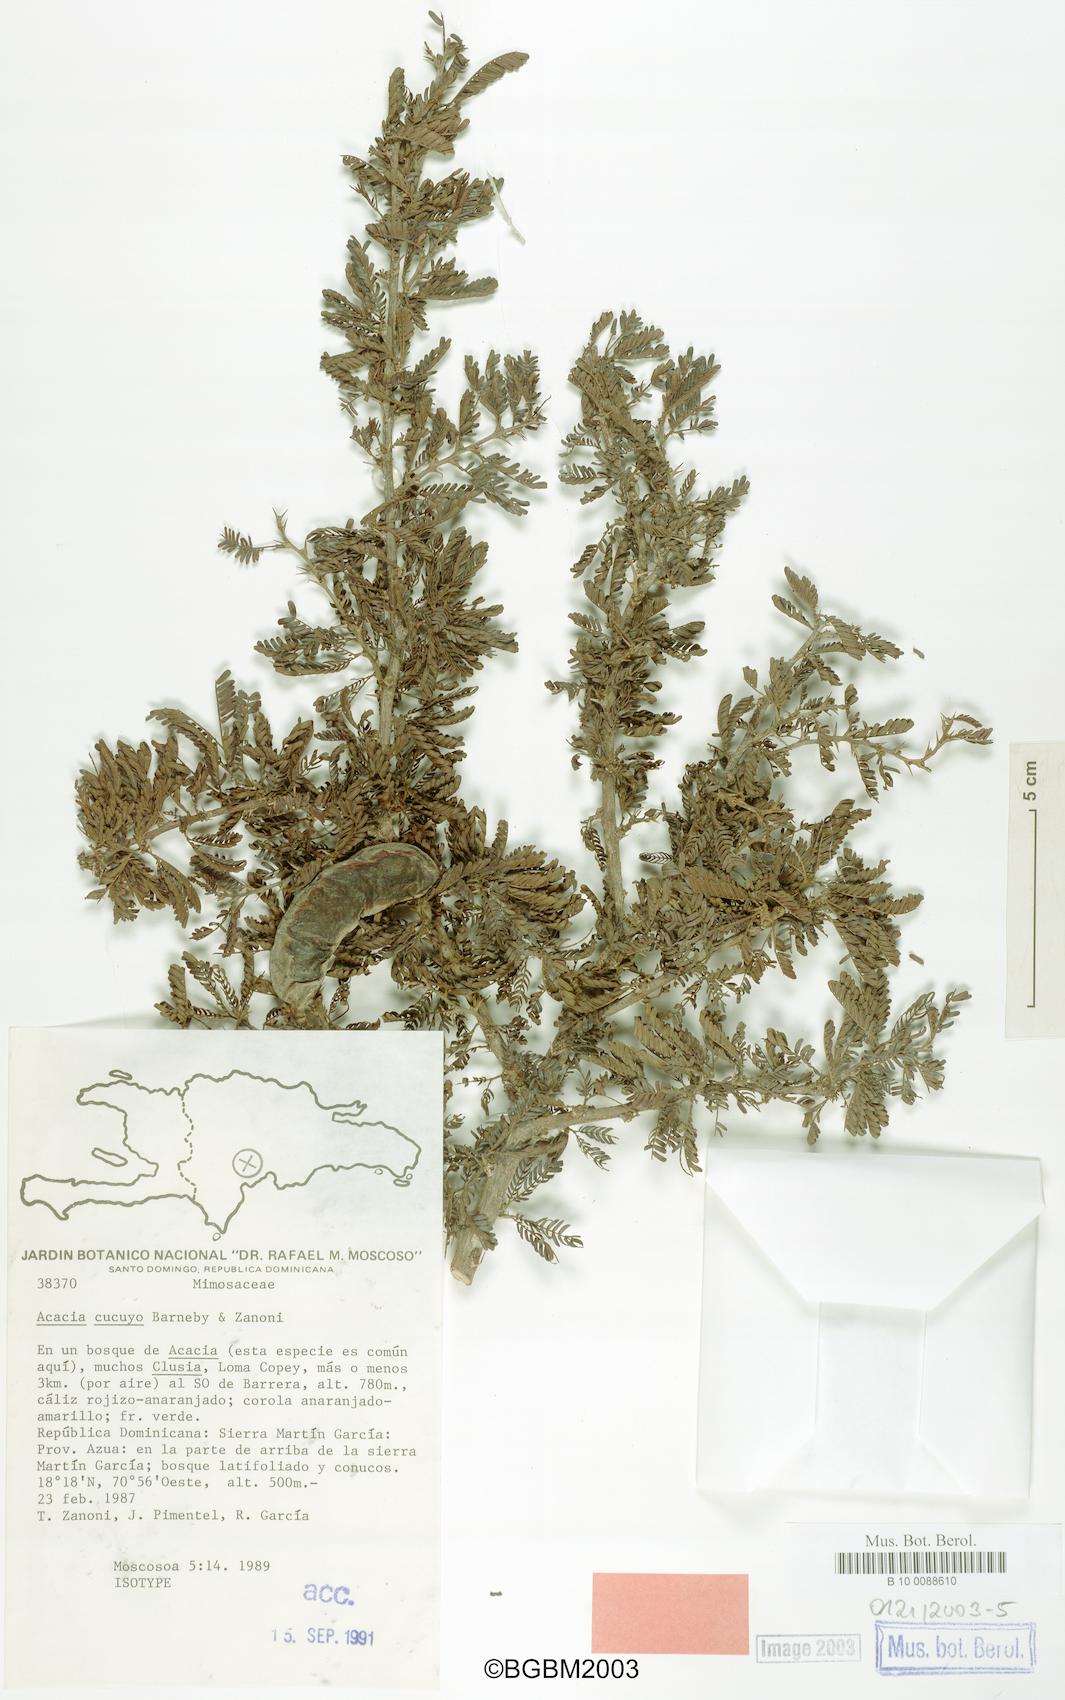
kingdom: Plantae
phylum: Tracheophyta
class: Magnoliopsida
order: Fabales
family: Fabaceae
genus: Vachellia
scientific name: Vachellia cucuyo
